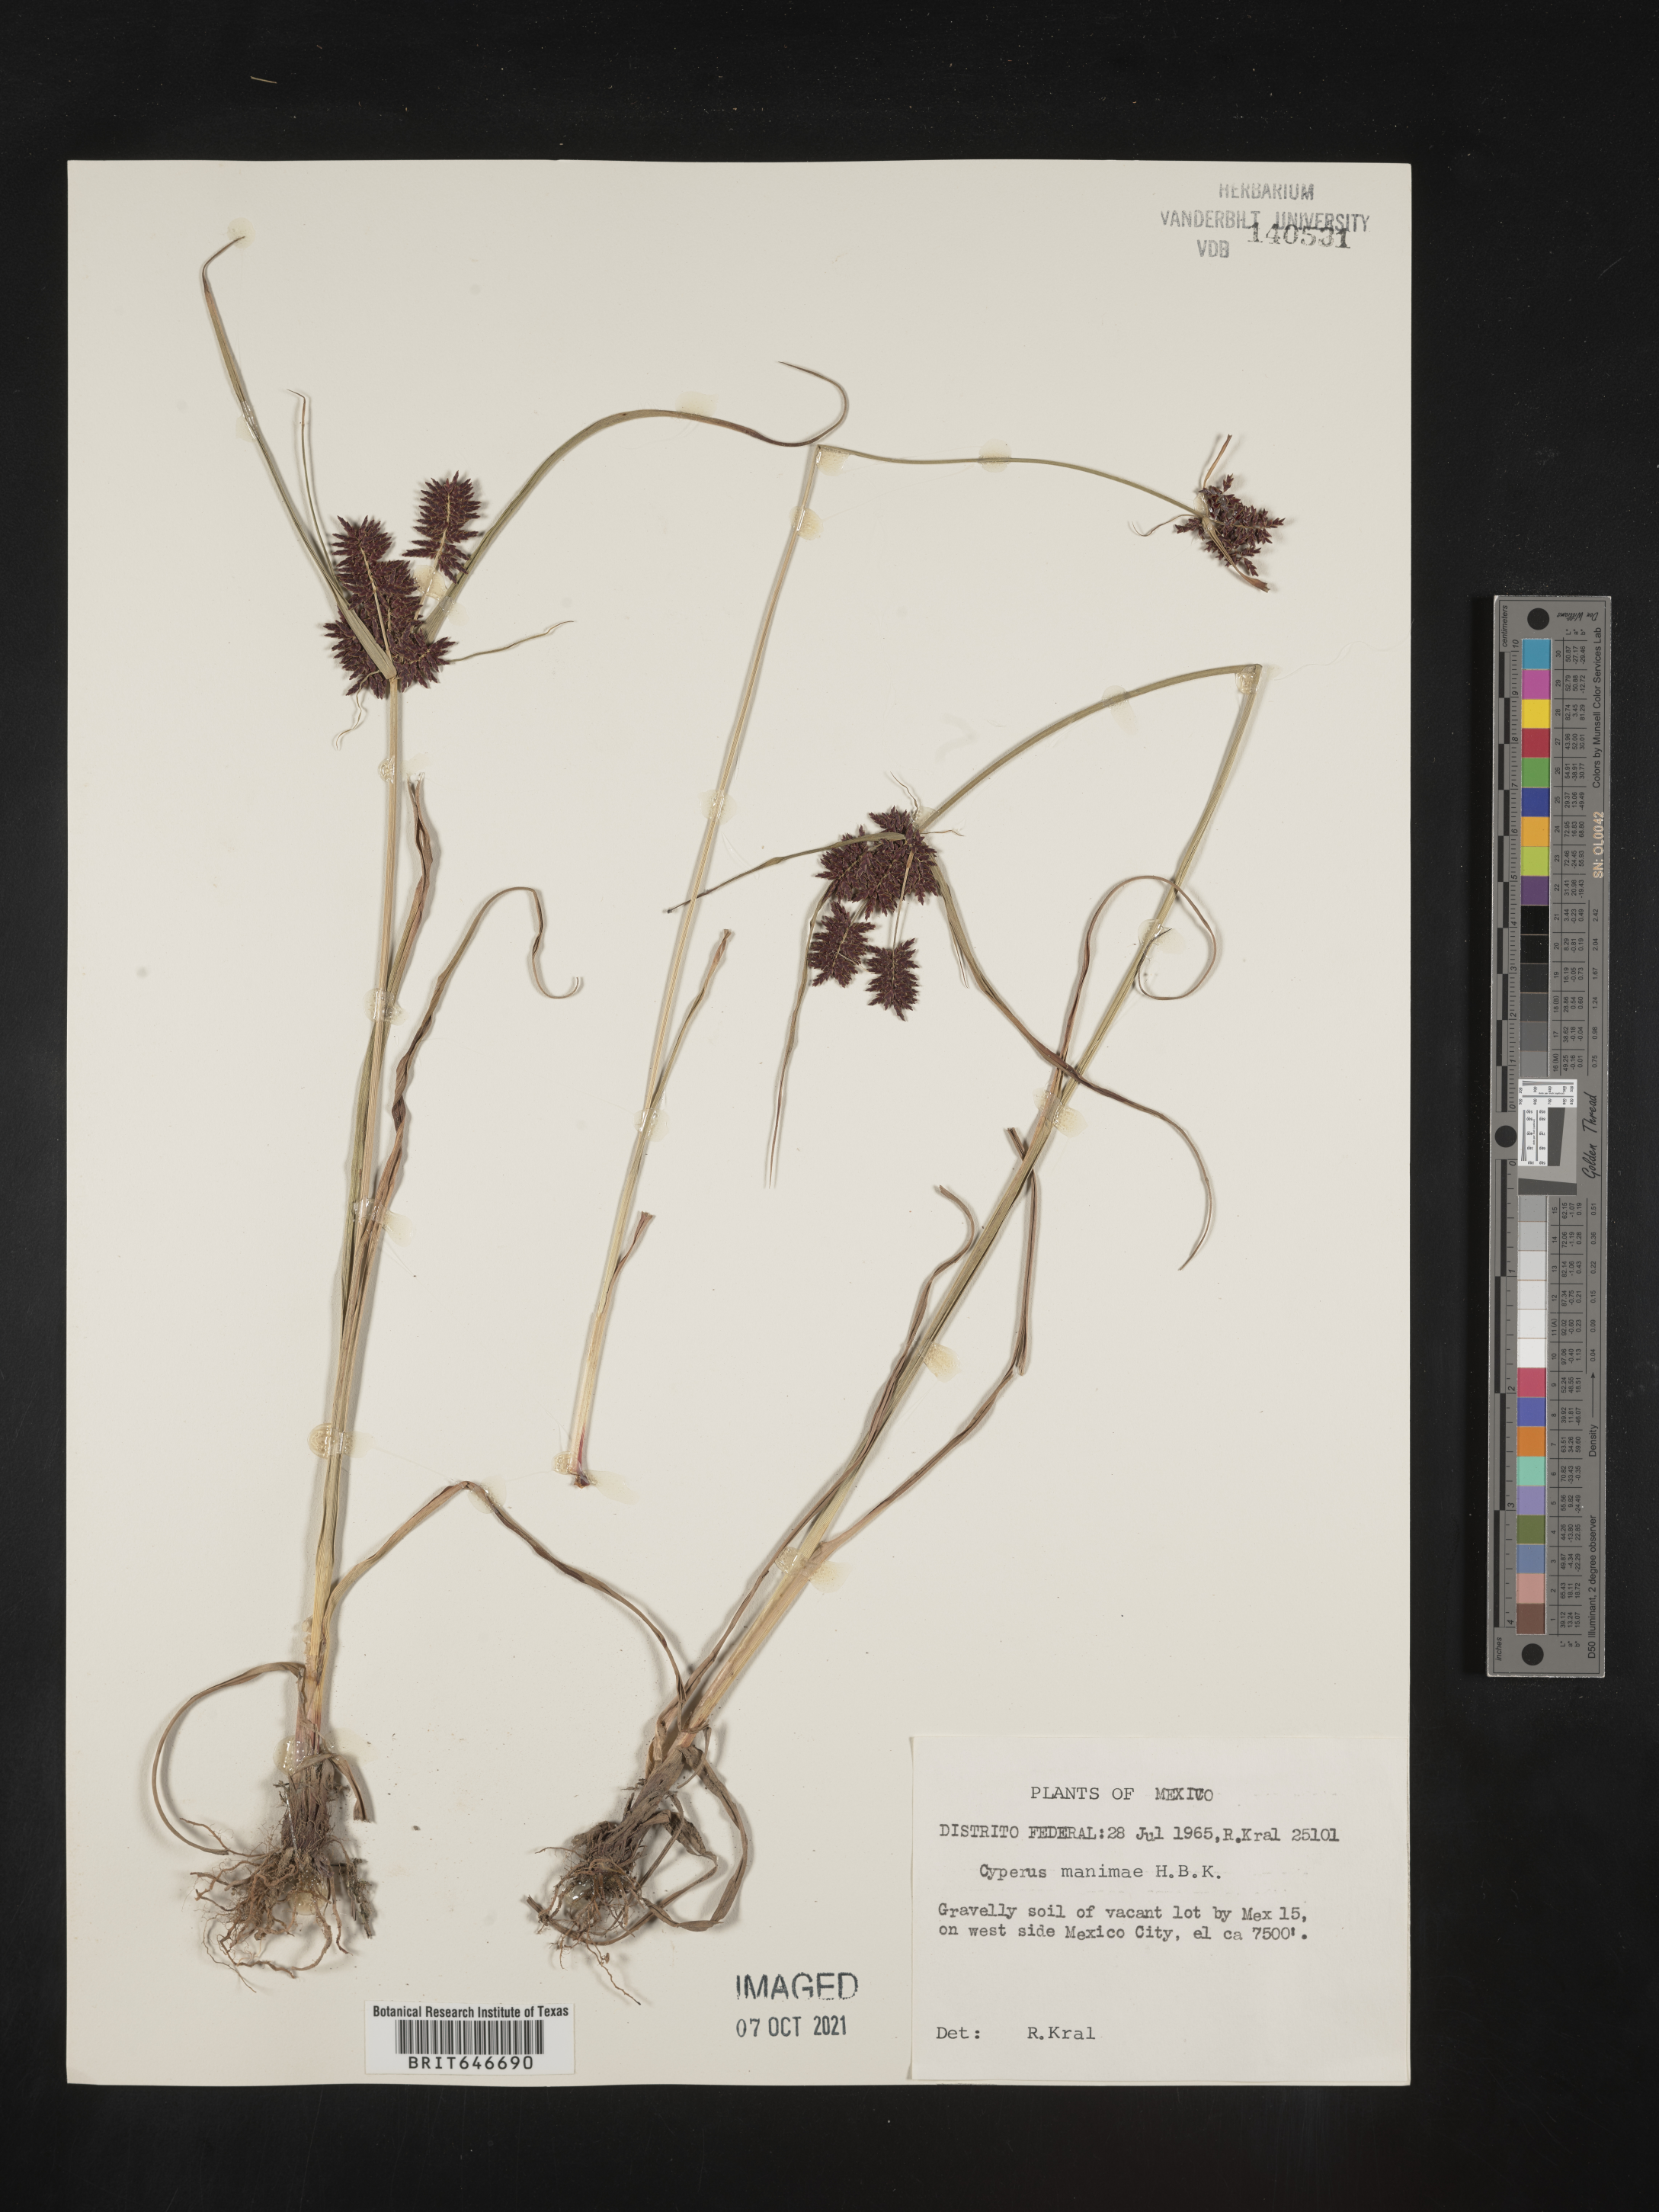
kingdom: Plantae
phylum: Tracheophyta
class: Liliopsida
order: Poales
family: Cyperaceae
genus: Cyperus
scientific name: Cyperus
